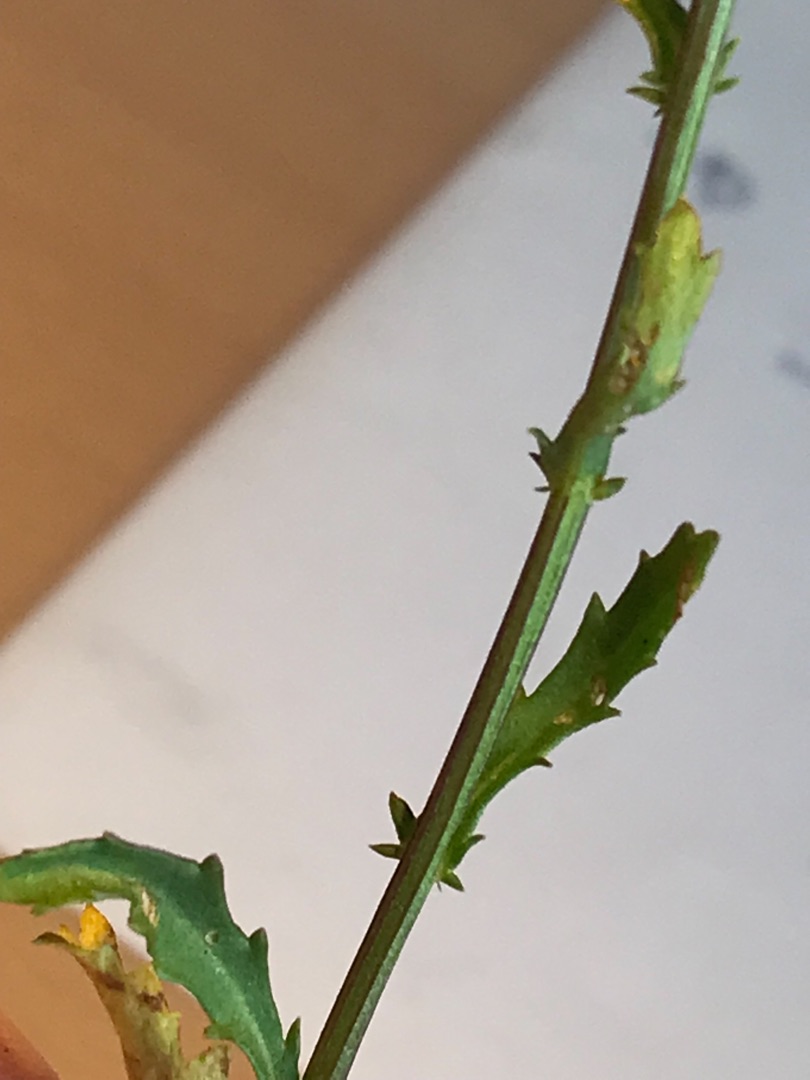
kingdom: Plantae
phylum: Tracheophyta
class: Magnoliopsida
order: Asterales
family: Asteraceae
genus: Leucanthemum
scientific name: Leucanthemum vulgare
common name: Hvid okseøje
